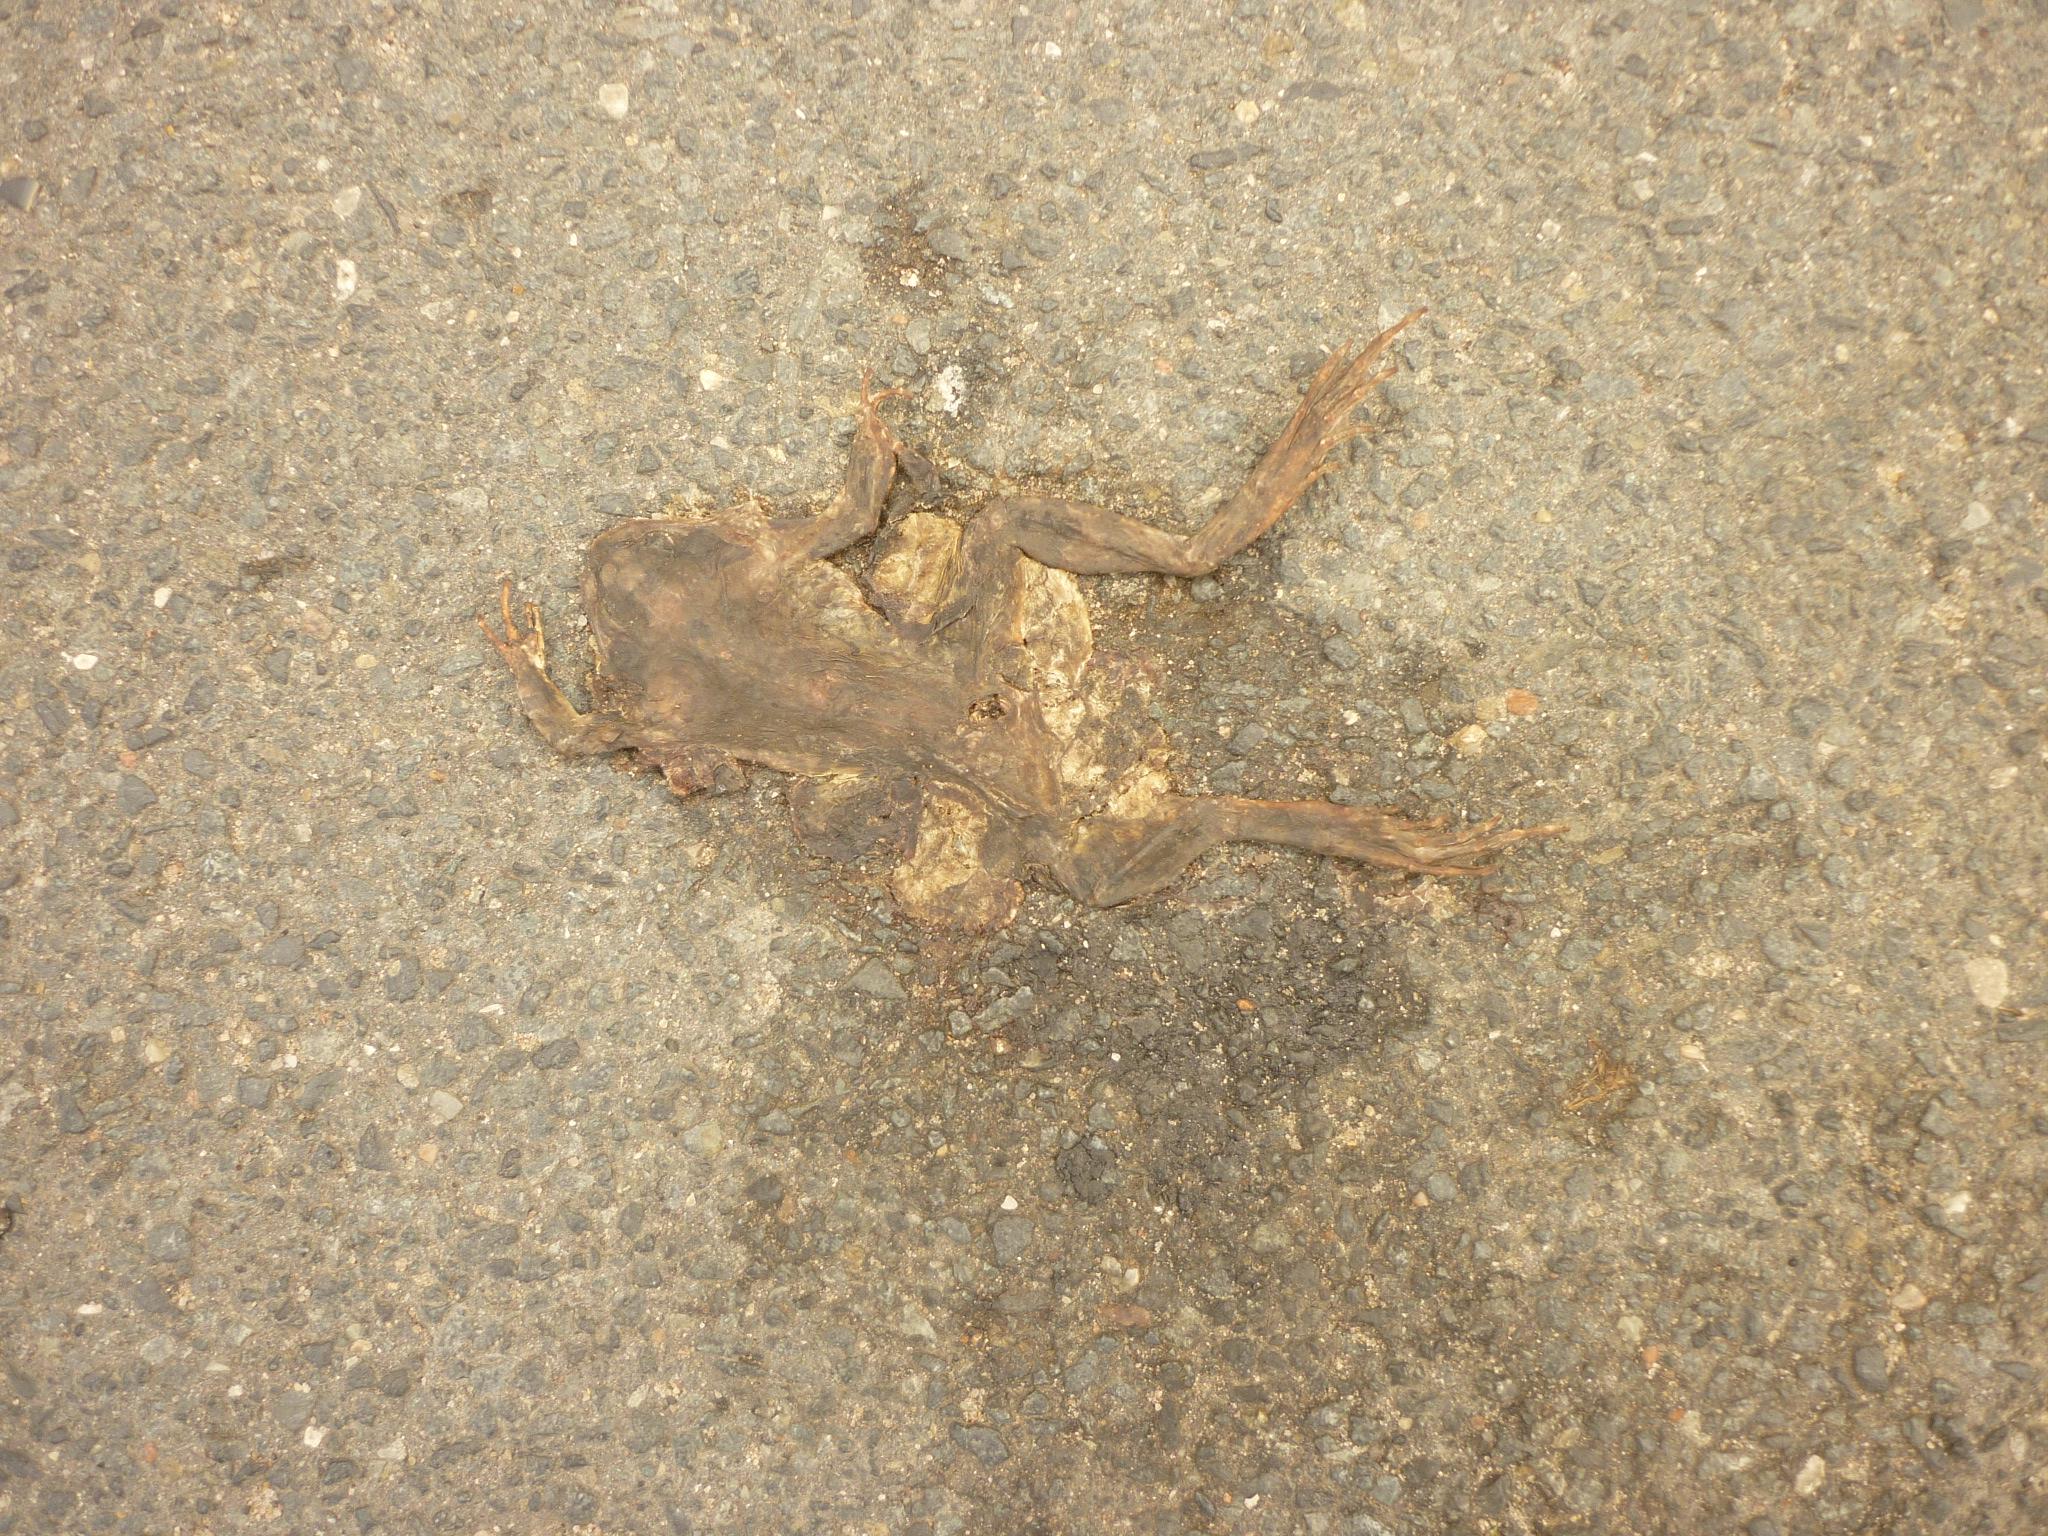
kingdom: Animalia
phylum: Chordata
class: Amphibia
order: Anura
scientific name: Anura
